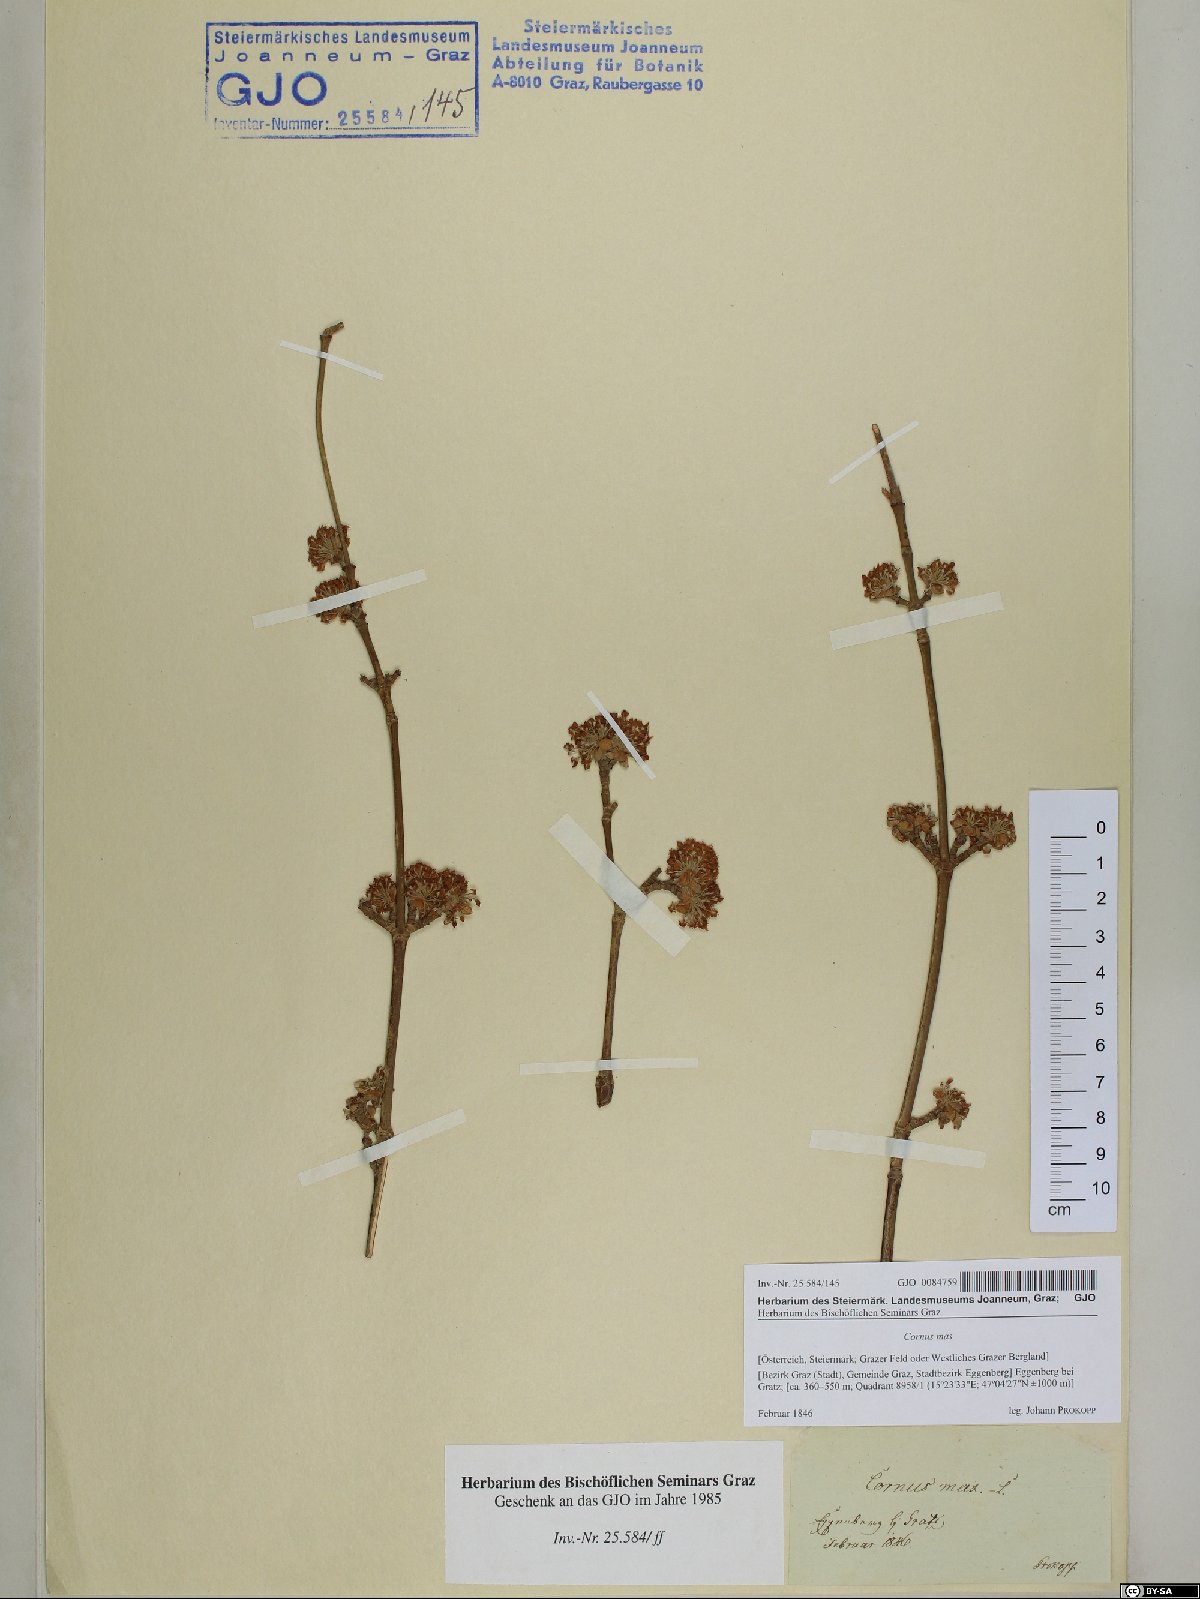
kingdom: Plantae
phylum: Tracheophyta
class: Magnoliopsida
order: Cornales
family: Cornaceae
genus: Cornus
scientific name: Cornus mas
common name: Cornelian-cherry
